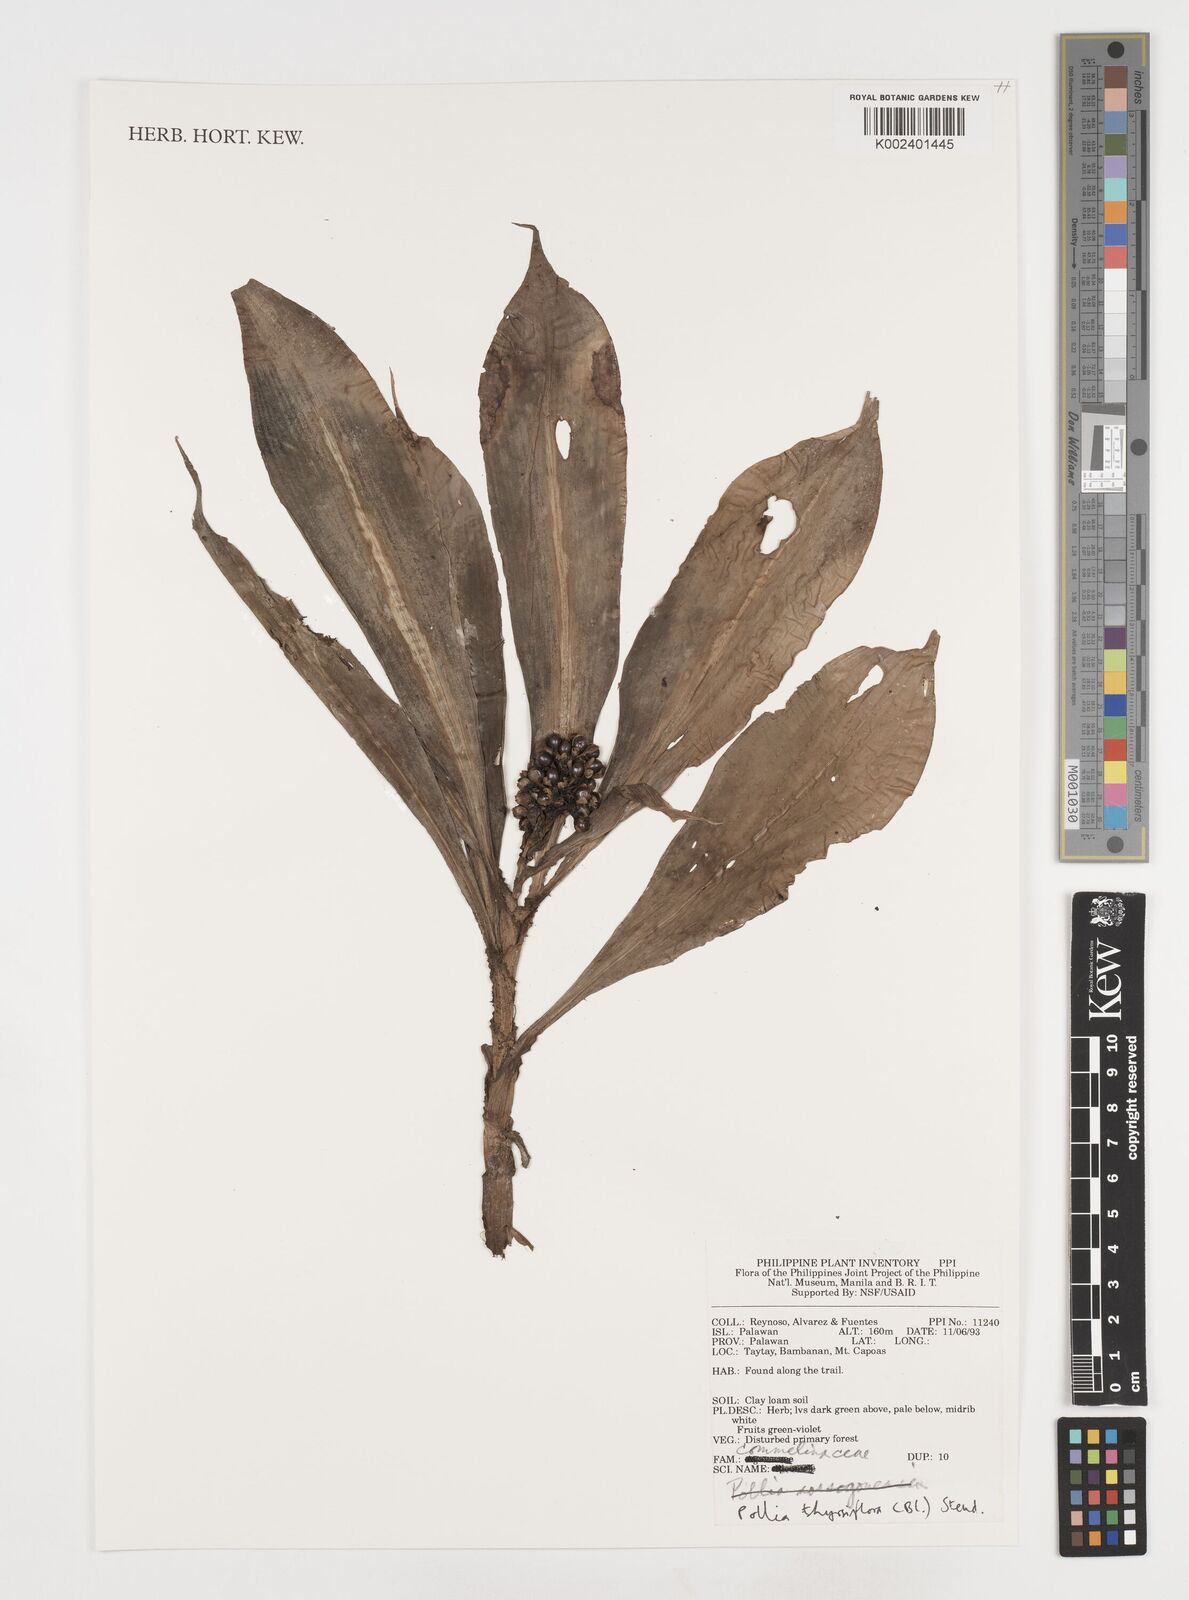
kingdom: Plantae
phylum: Tracheophyta
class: Liliopsida
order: Commelinales
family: Commelinaceae
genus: Pollia
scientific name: Pollia thyrsiflora
